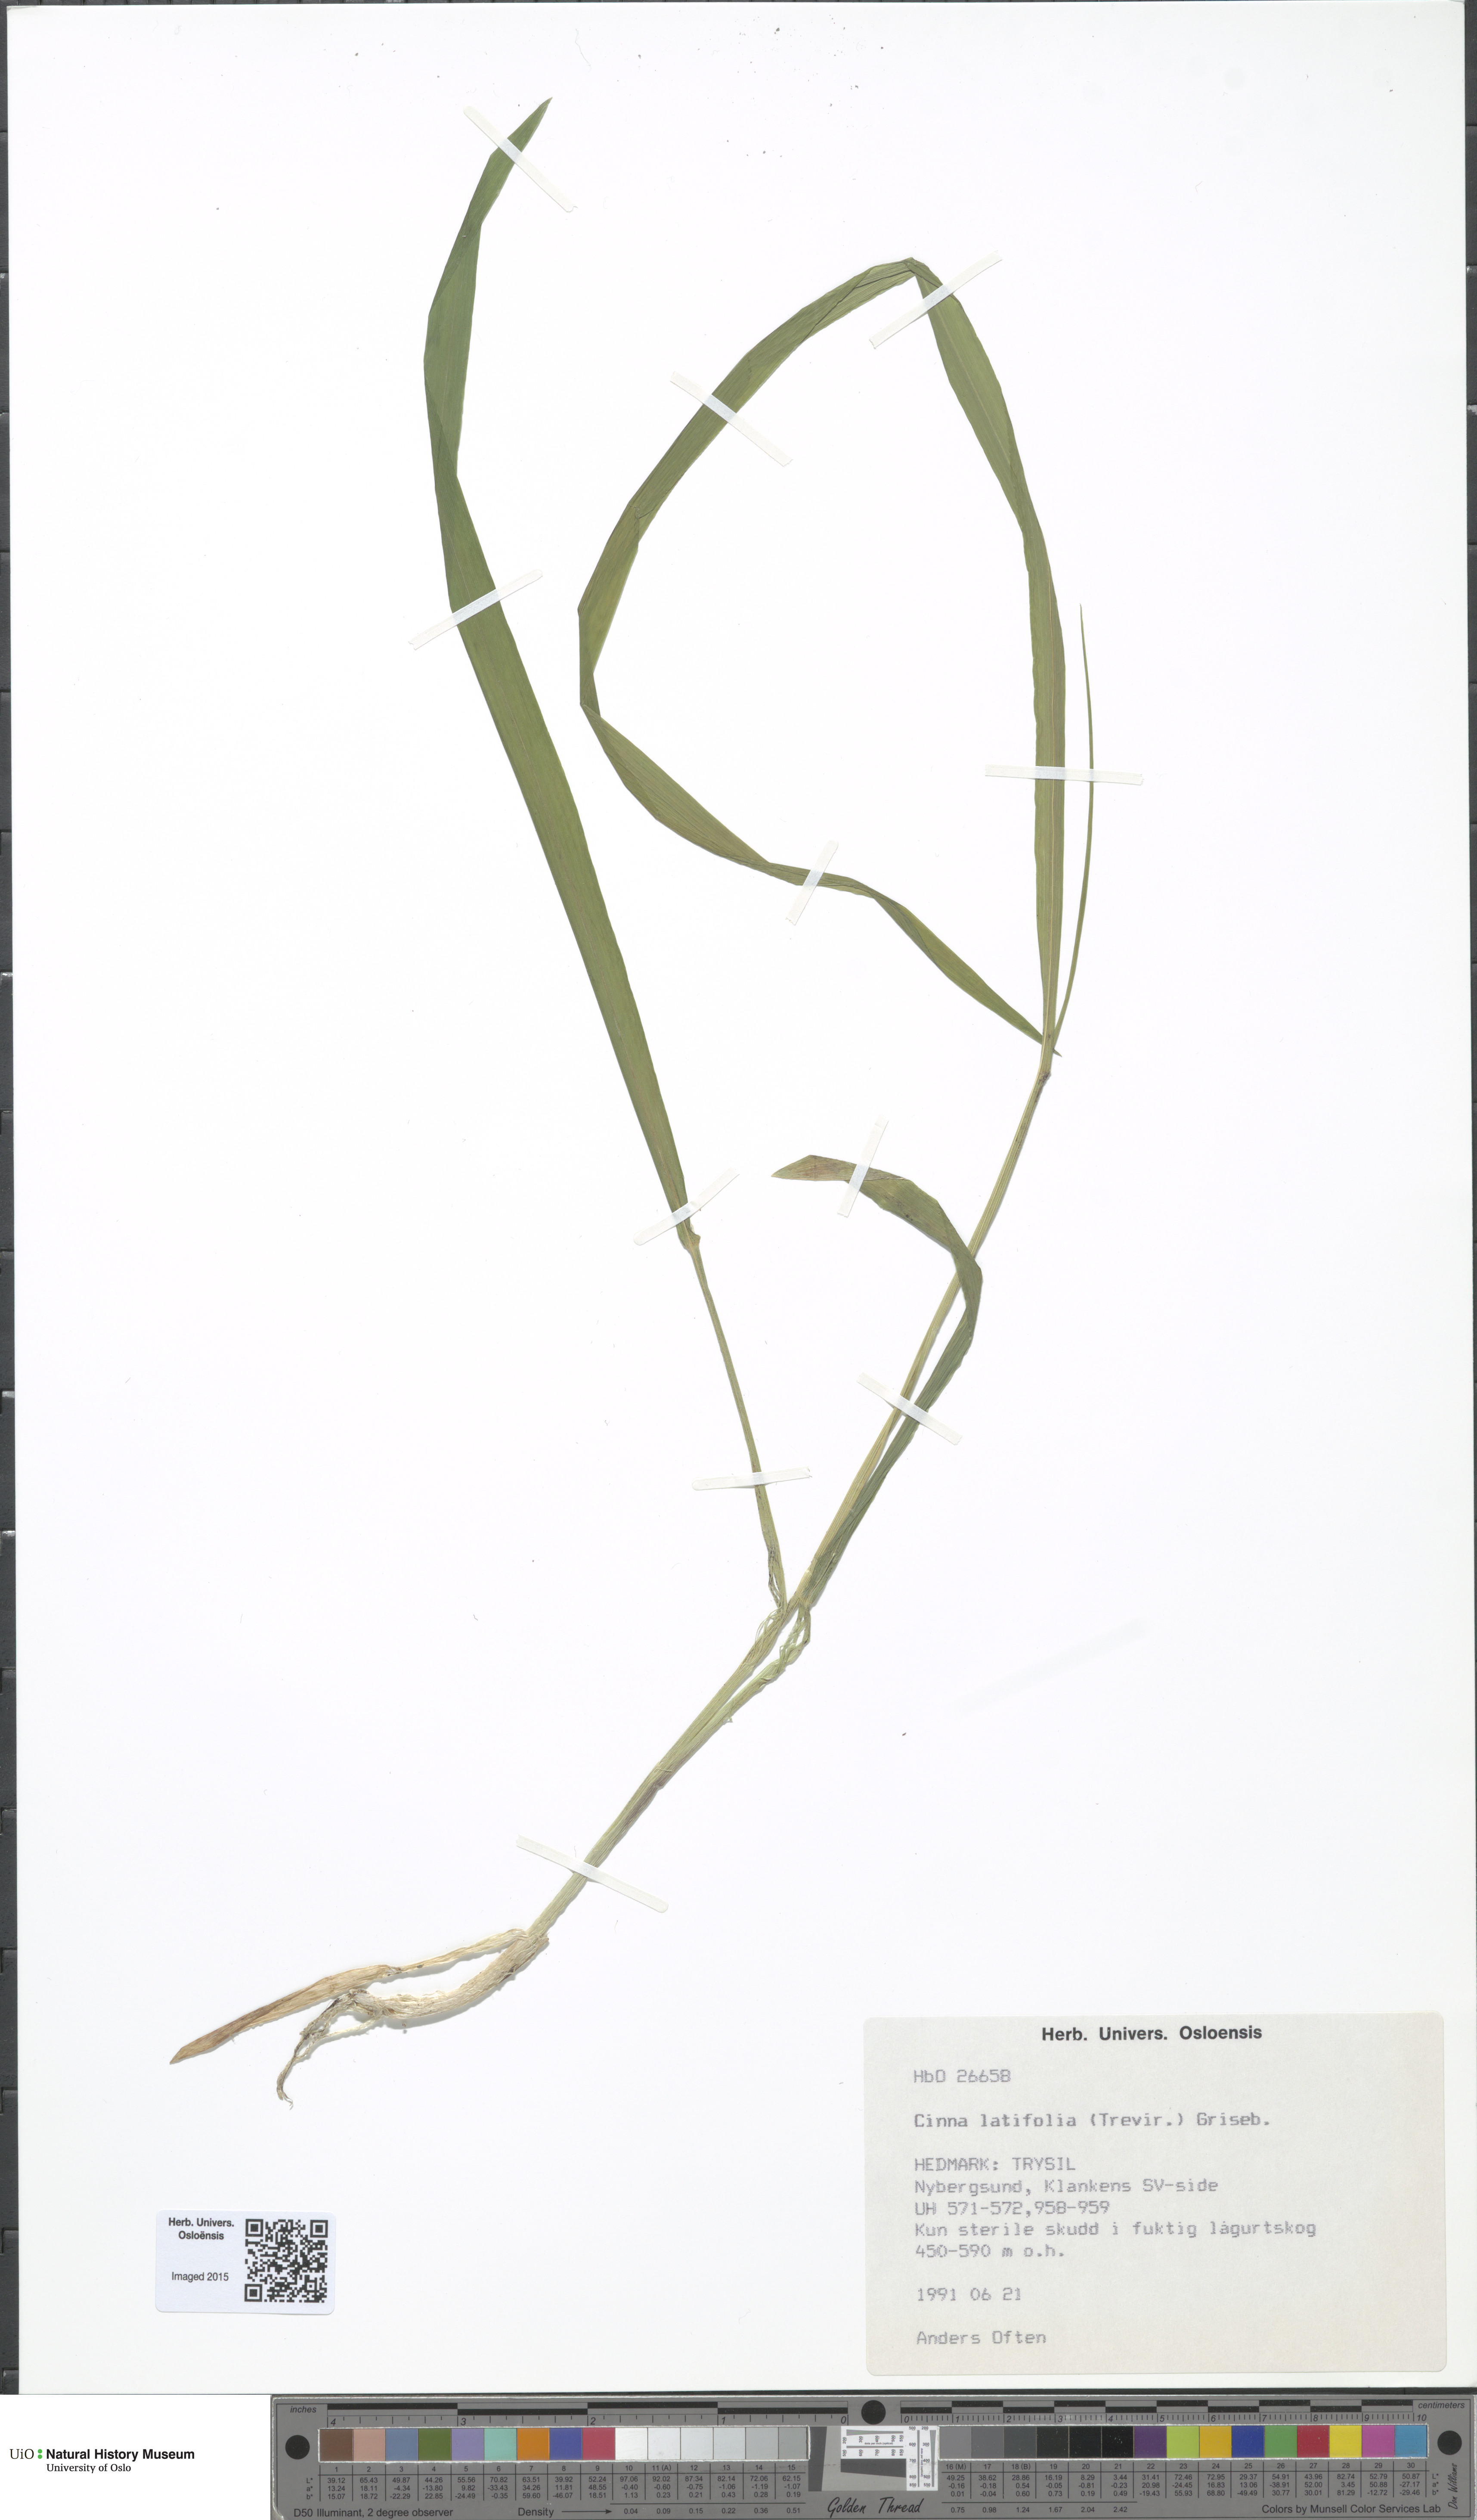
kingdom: Plantae
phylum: Tracheophyta
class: Liliopsida
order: Poales
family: Poaceae
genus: Cinna
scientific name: Cinna latifolia
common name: Drooping woodreed
